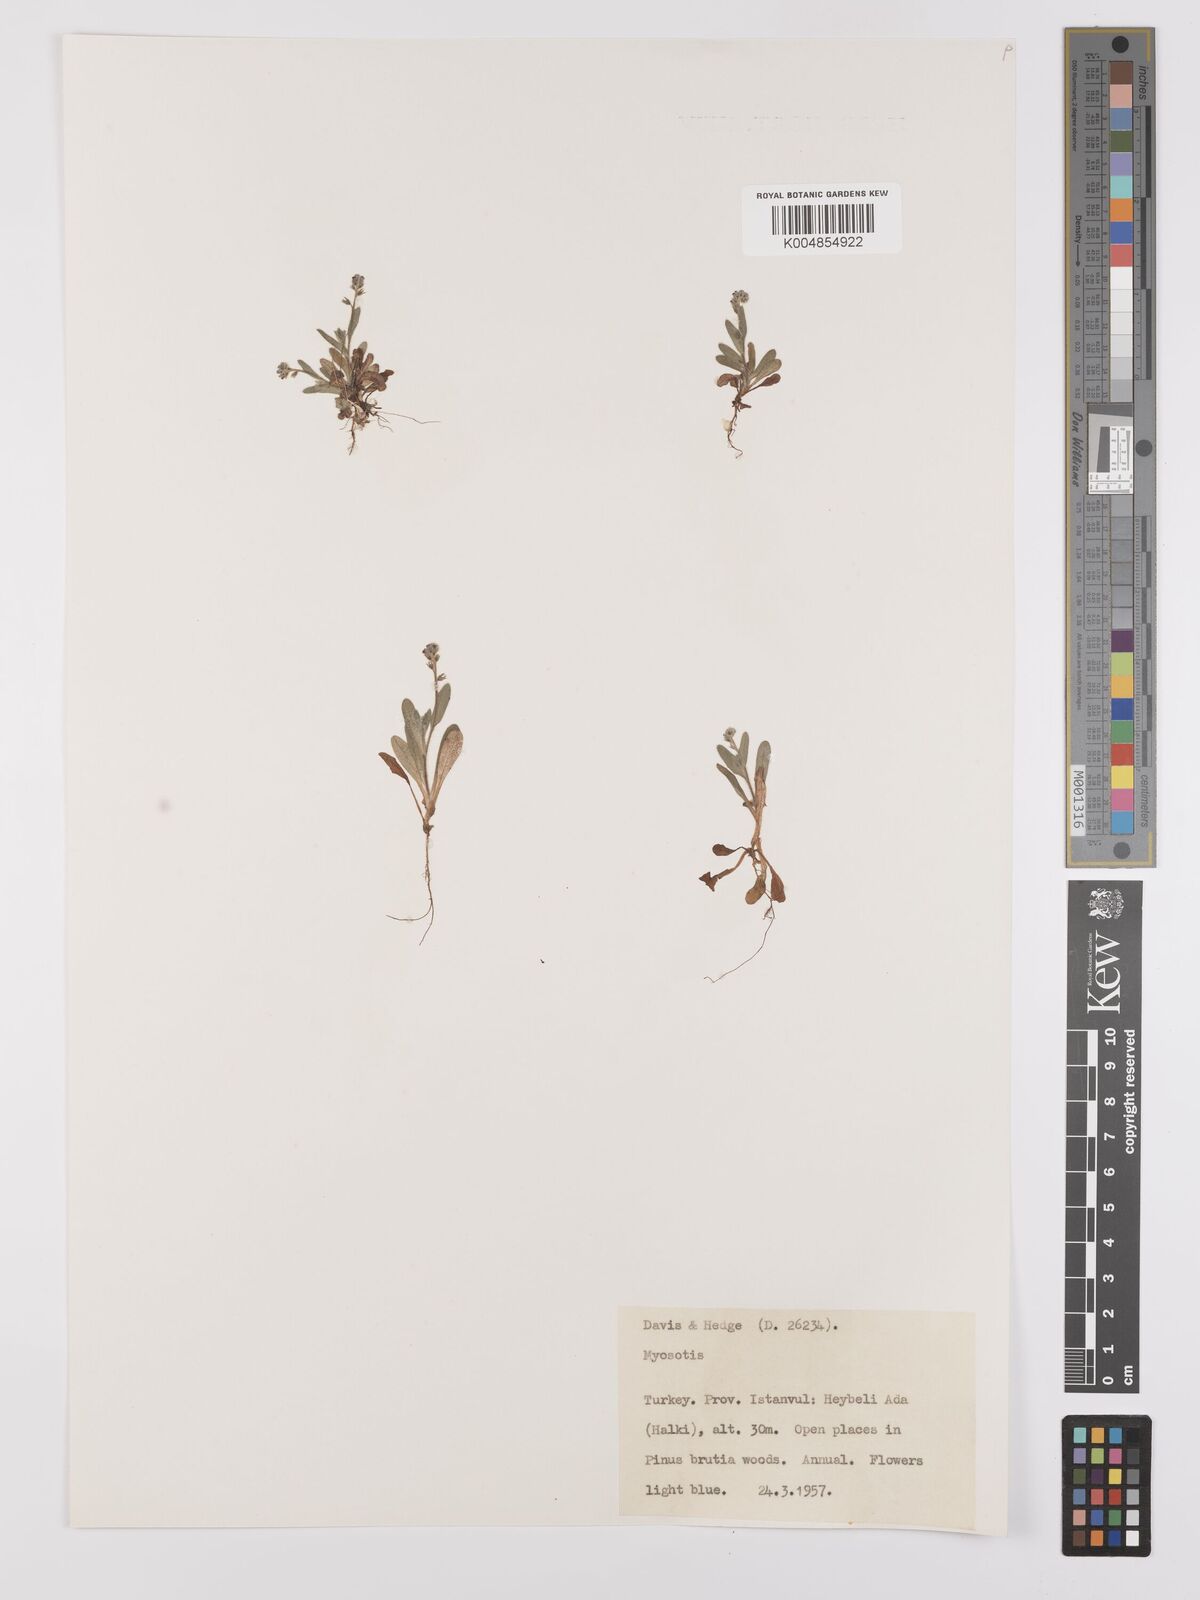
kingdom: Plantae
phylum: Tracheophyta
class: Magnoliopsida
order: Boraginales
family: Boraginaceae
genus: Myosotis
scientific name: Myosotis
